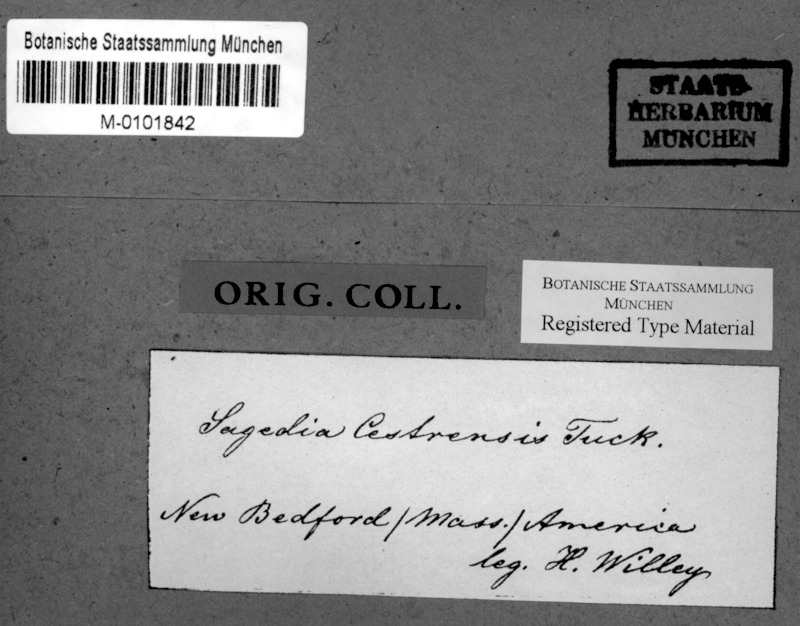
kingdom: Fungi
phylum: Ascomycota
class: Lecanoromycetes
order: Ostropales
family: Porinaceae
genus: Pseudosagedia
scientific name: Pseudosagedia cestrensis
